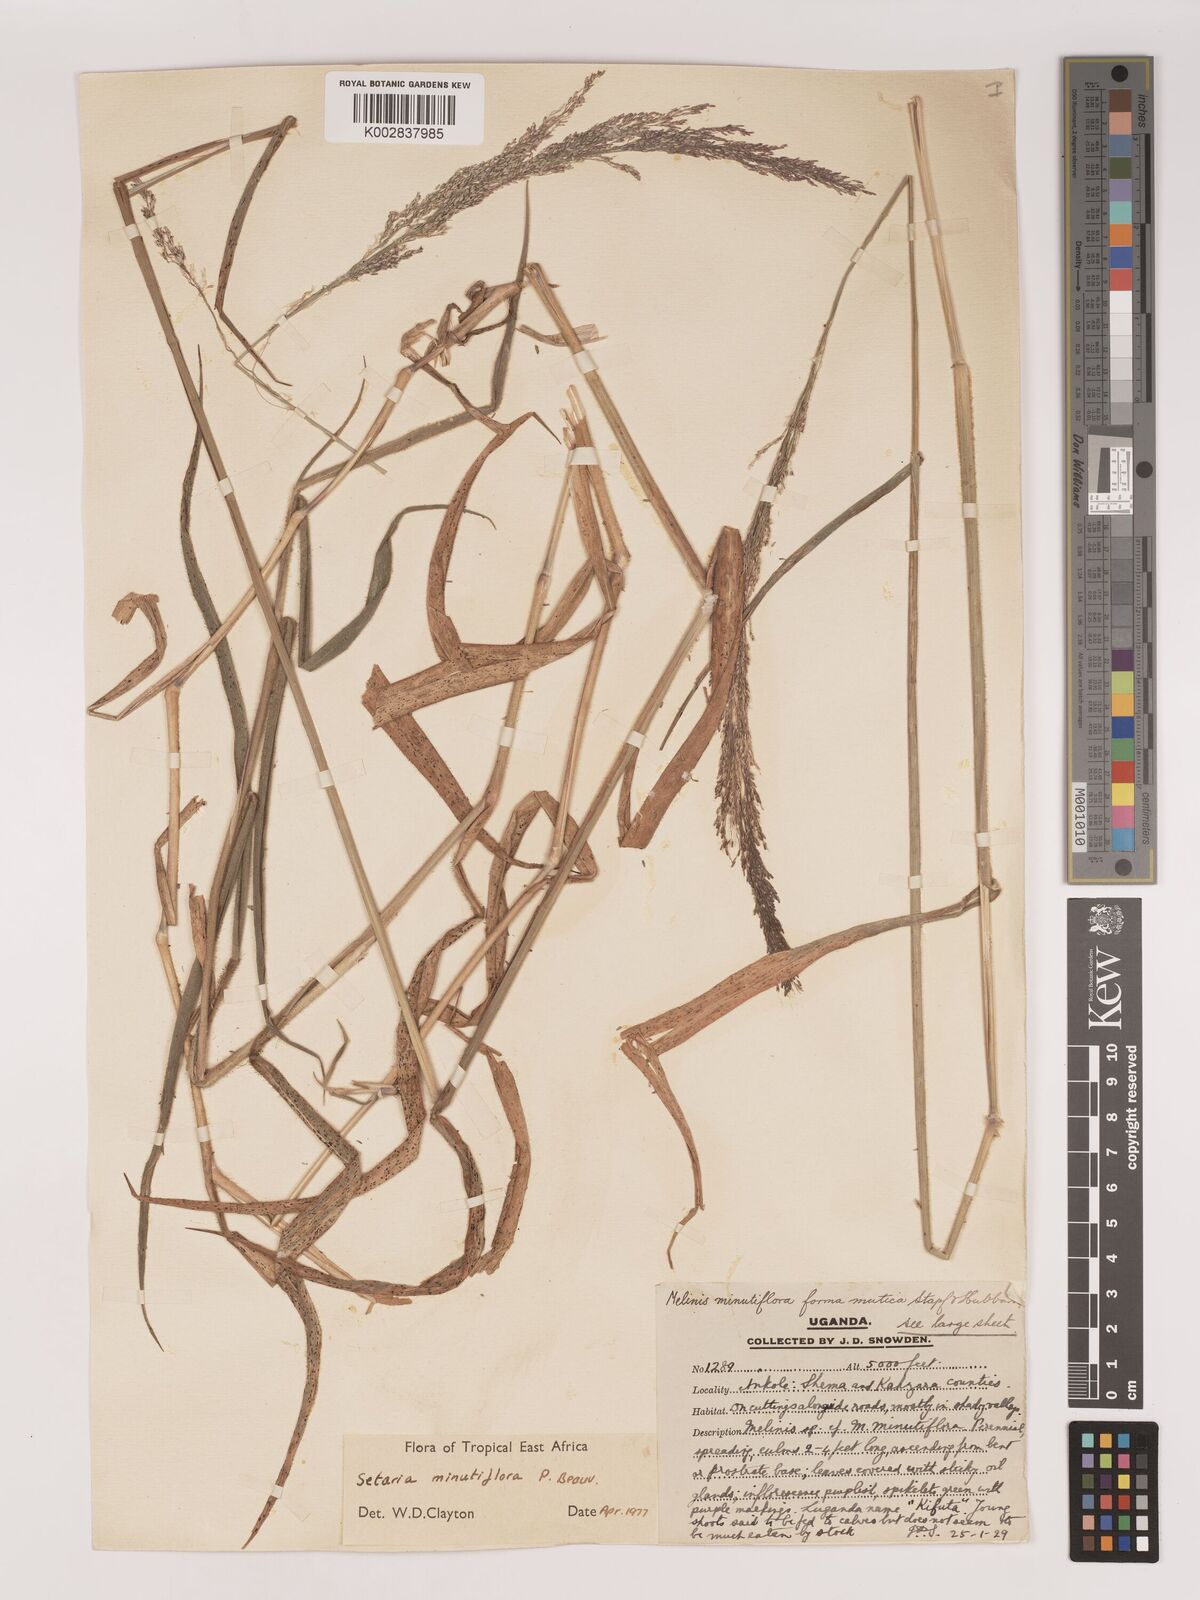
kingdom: Plantae
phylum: Tracheophyta
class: Liliopsida
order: Poales
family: Poaceae
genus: Melinis
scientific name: Melinis minutiflora
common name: Molassesgrass
